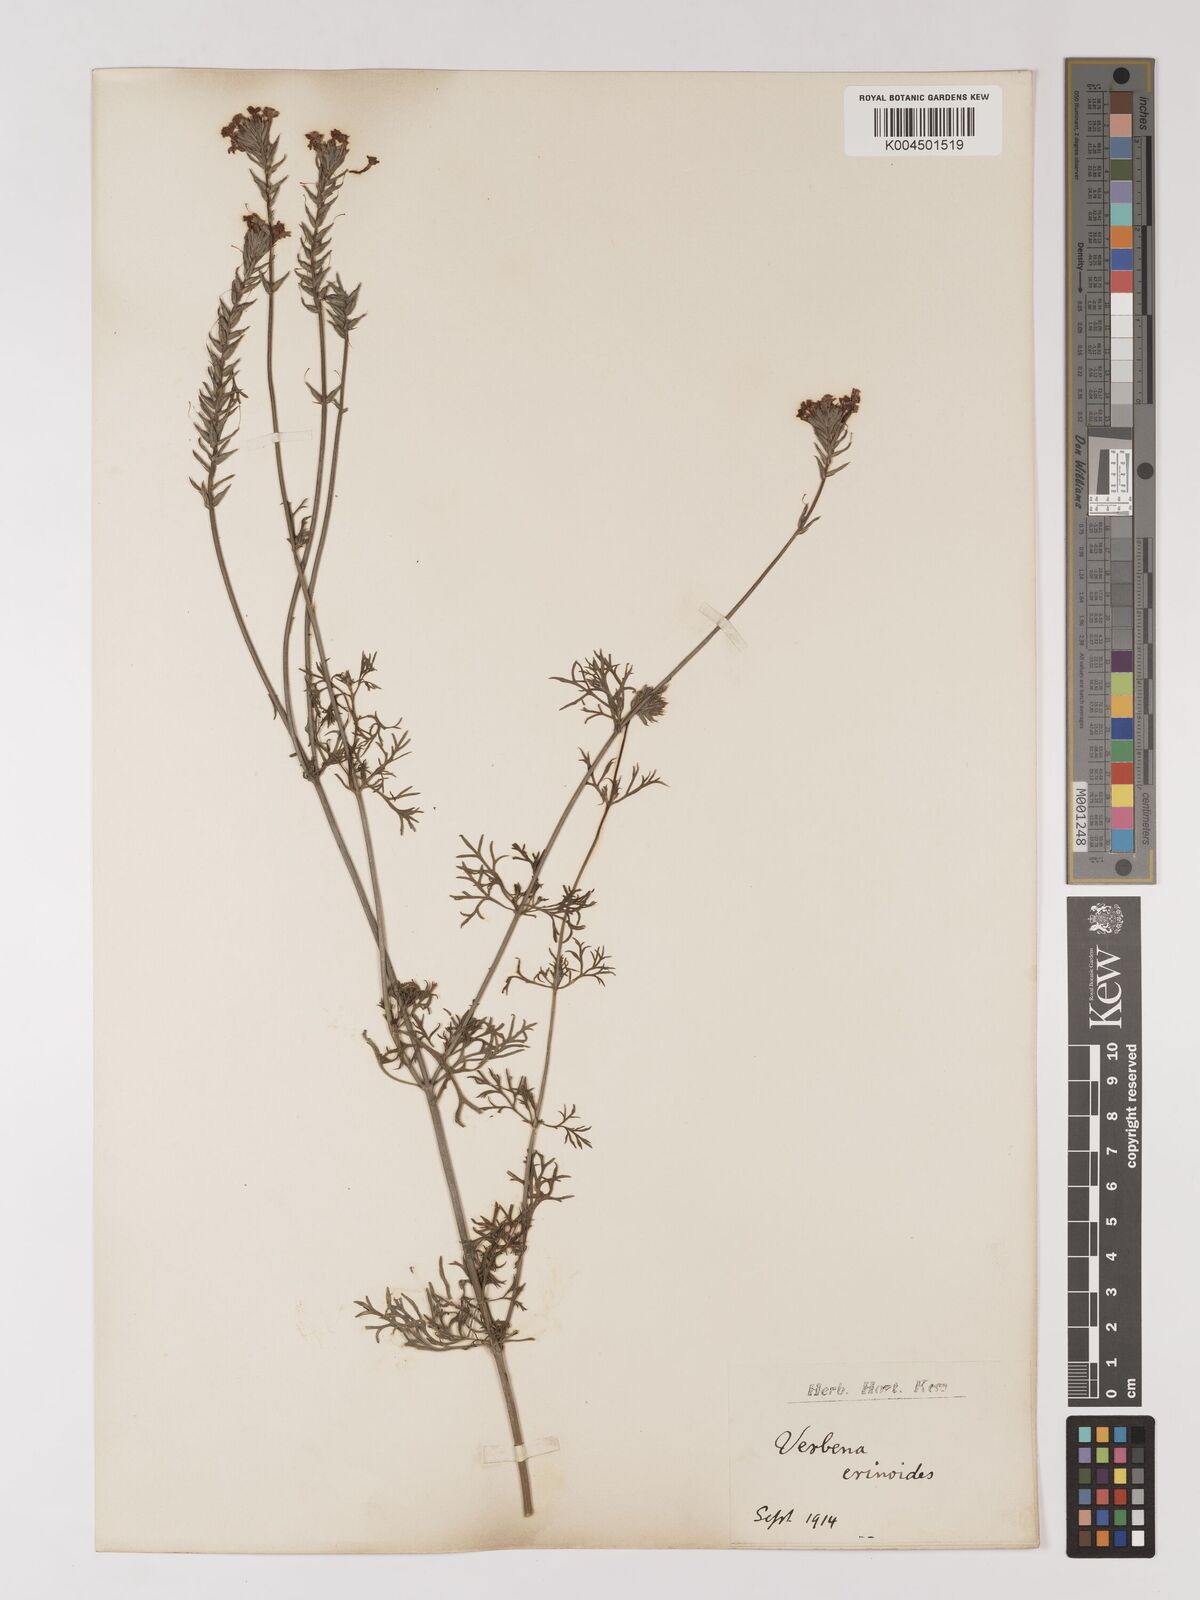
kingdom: Plantae
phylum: Tracheophyta
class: Magnoliopsida
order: Lamiales
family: Verbenaceae
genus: Verbena
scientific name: Verbena aristigera
